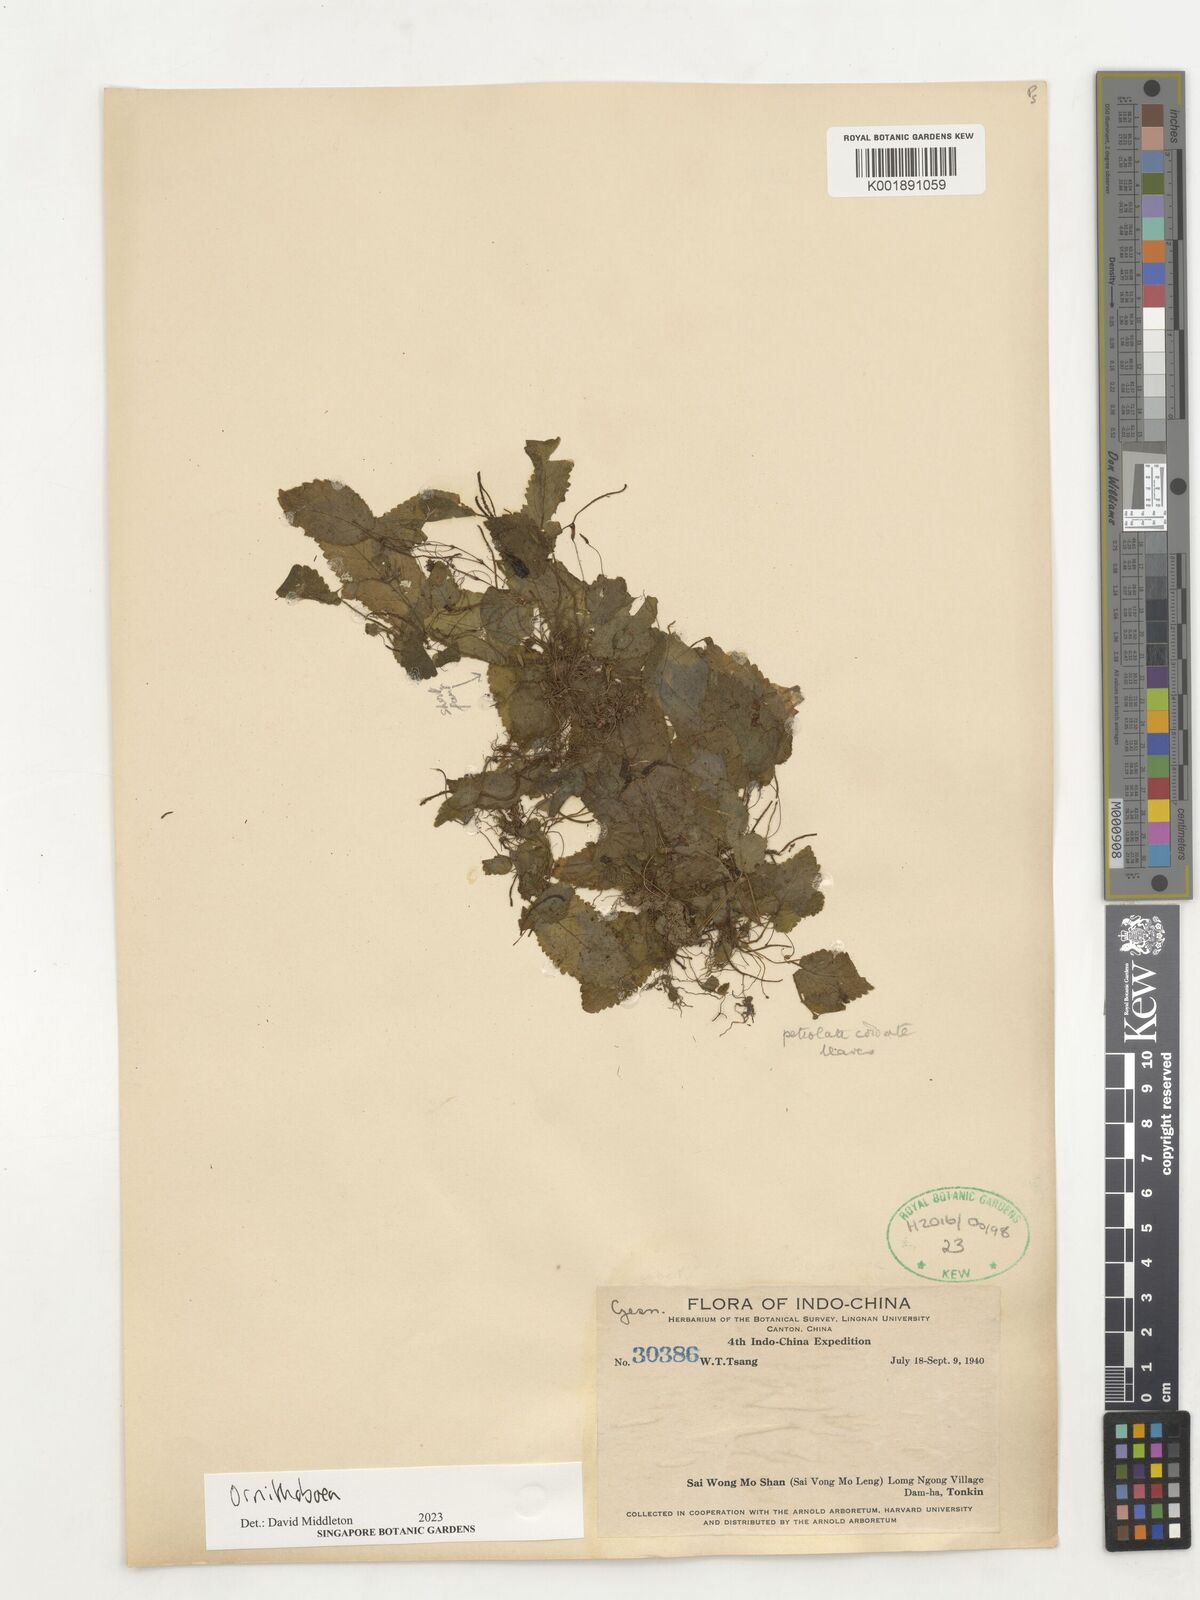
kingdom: Plantae
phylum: Tracheophyta
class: Magnoliopsida
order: Lamiales
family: Gesneriaceae
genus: Ornithoboea
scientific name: Ornithoboea
